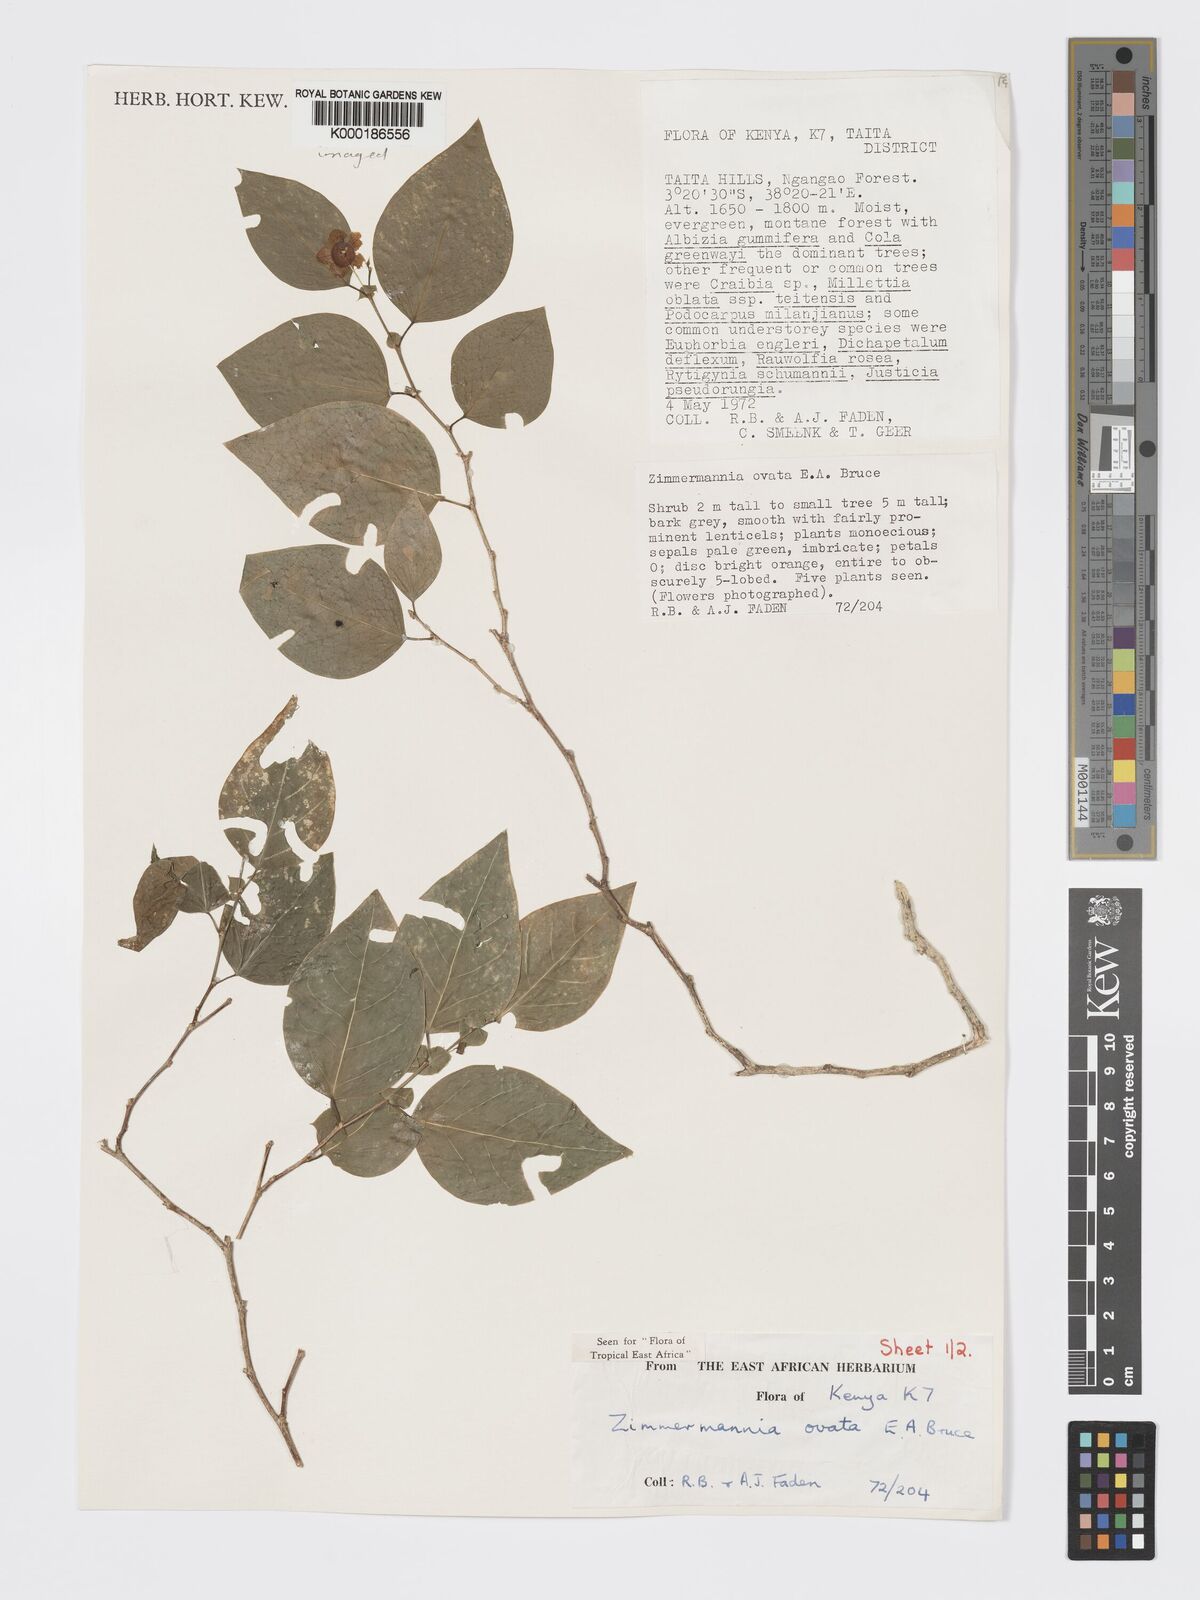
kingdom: Plantae
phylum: Tracheophyta
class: Magnoliopsida
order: Malpighiales
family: Phyllanthaceae
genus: Meineckia
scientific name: Meineckia ovata
